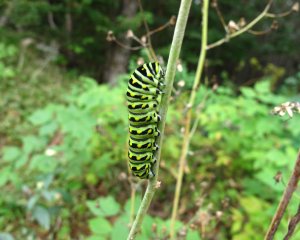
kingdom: Animalia
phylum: Arthropoda
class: Insecta
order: Lepidoptera
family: Papilionidae
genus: Papilio
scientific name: Papilio polyxenes
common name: Black Swallowtail
